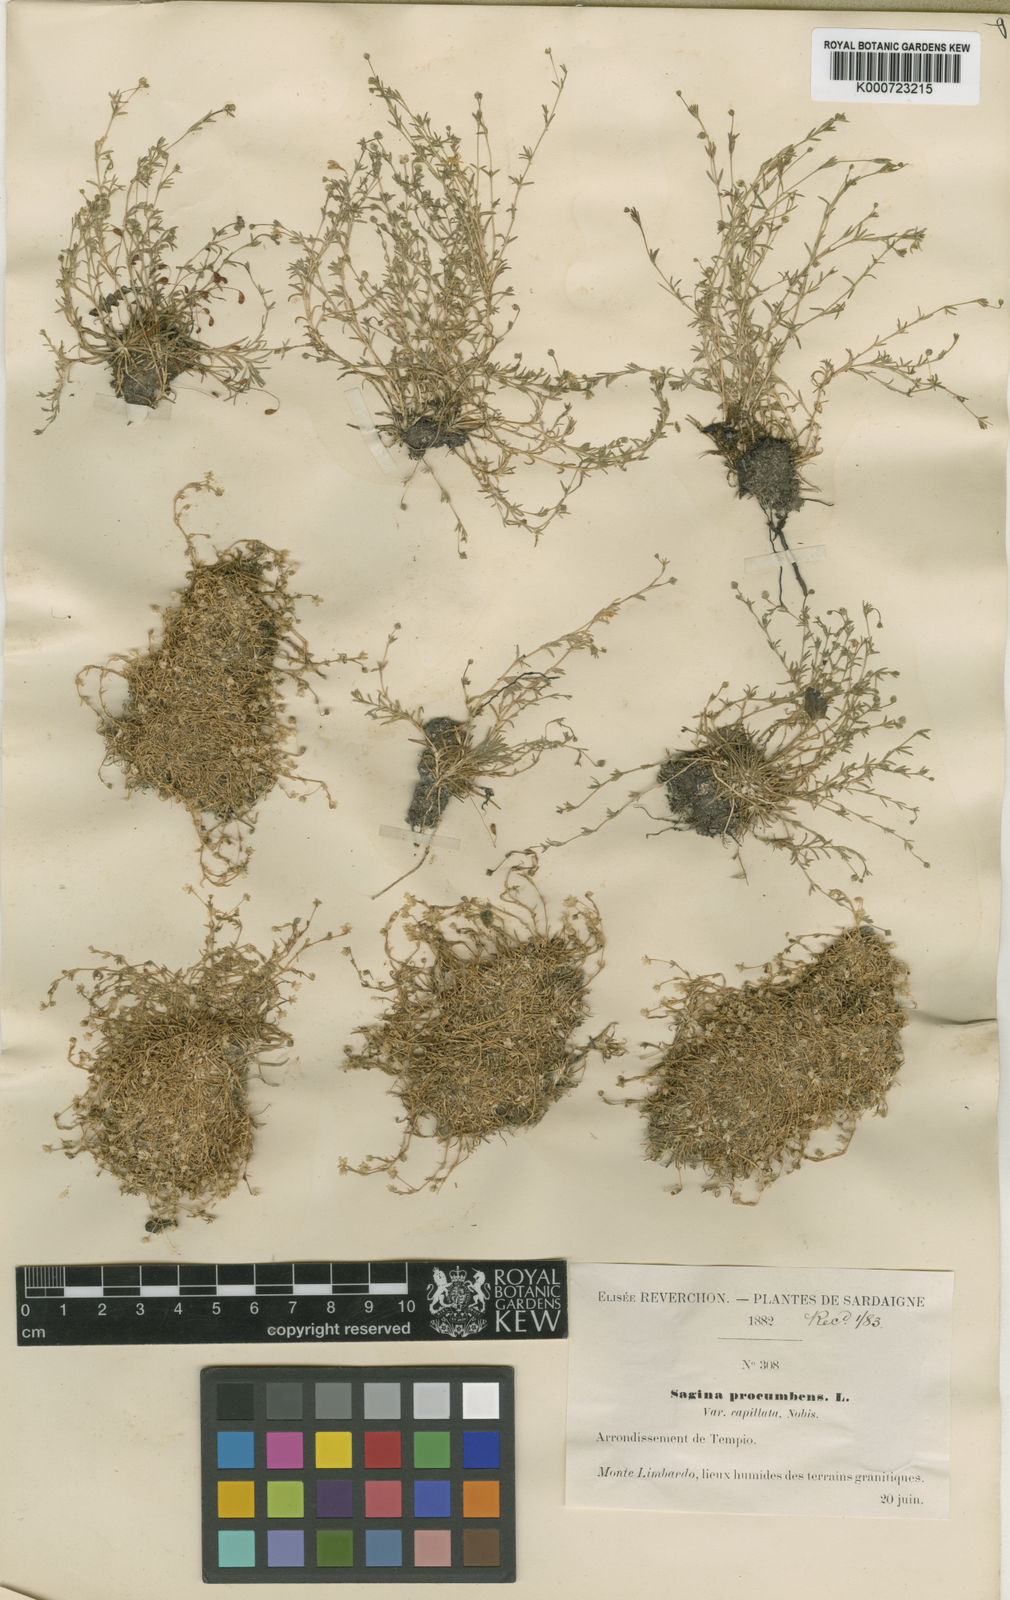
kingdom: Plantae
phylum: Tracheophyta
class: Magnoliopsida
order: Caryophyllales
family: Caryophyllaceae
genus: Sagina
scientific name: Sagina procumbens
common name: Procumbent pearlwort
